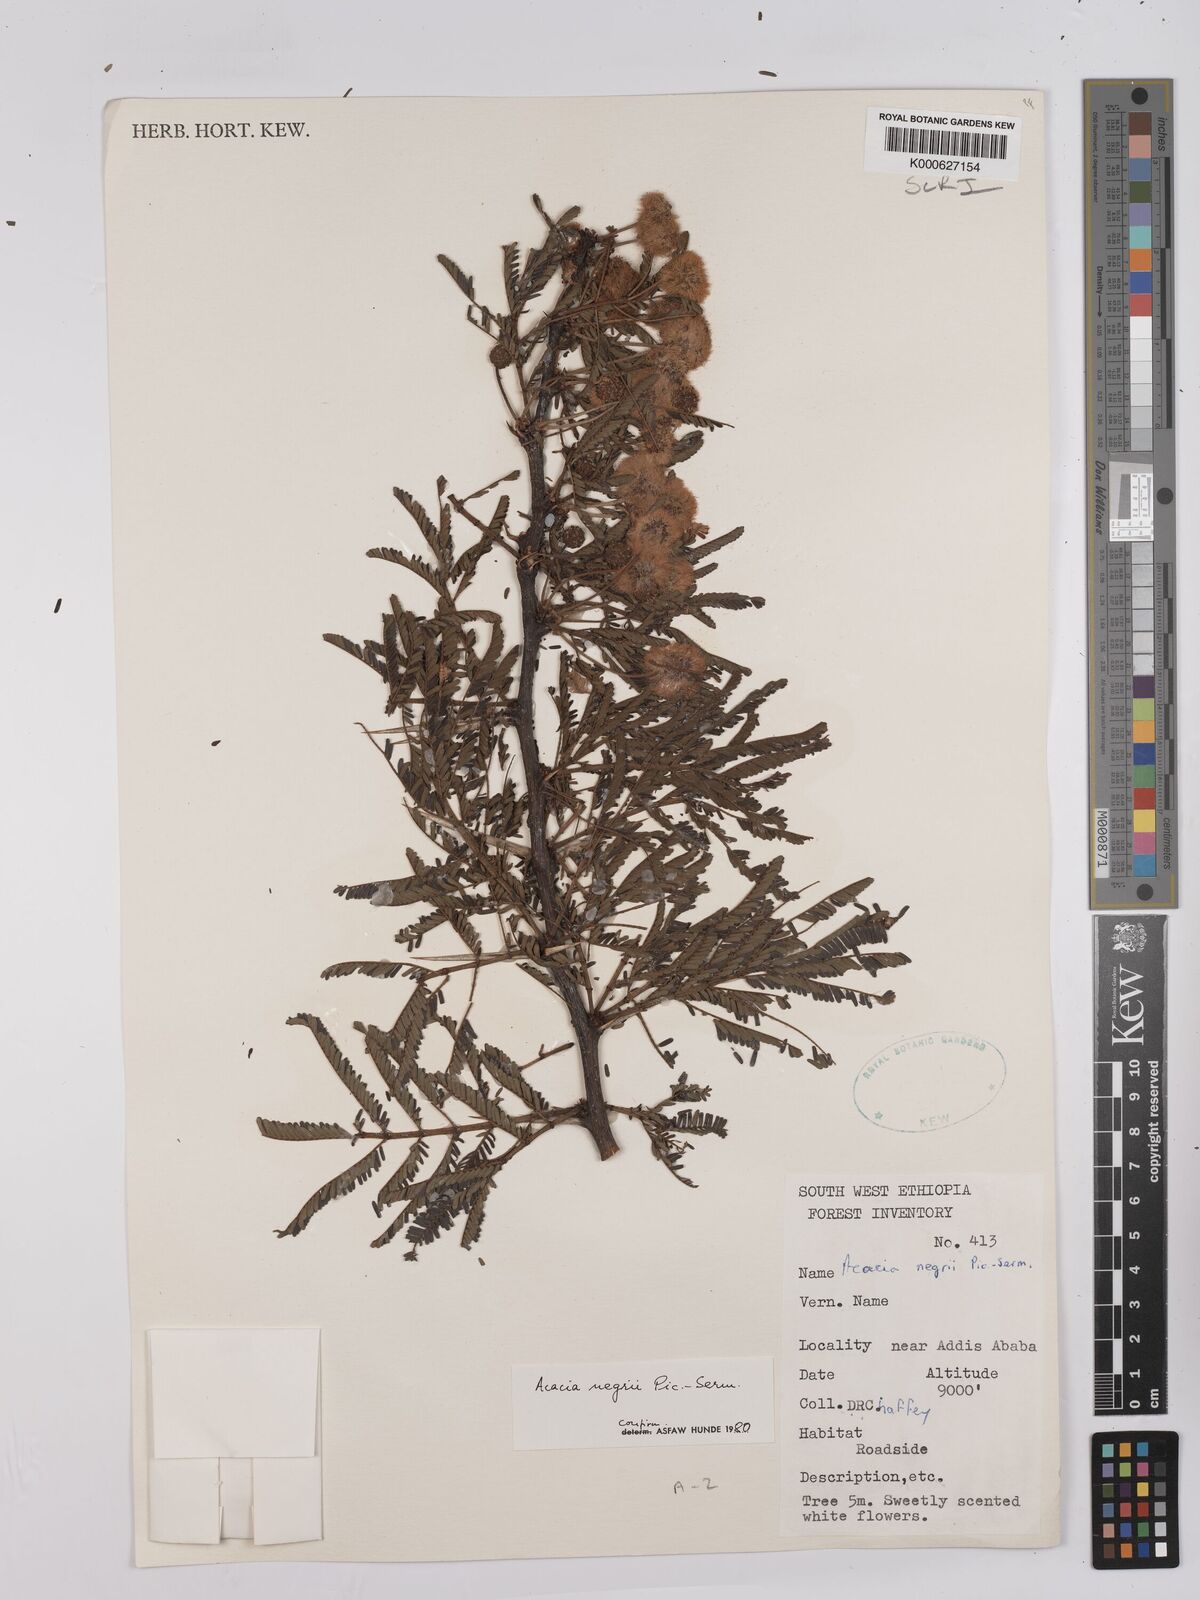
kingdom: Plantae
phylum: Tracheophyta
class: Magnoliopsida
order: Fabales
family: Fabaceae
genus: Vachellia
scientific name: Vachellia negrii
